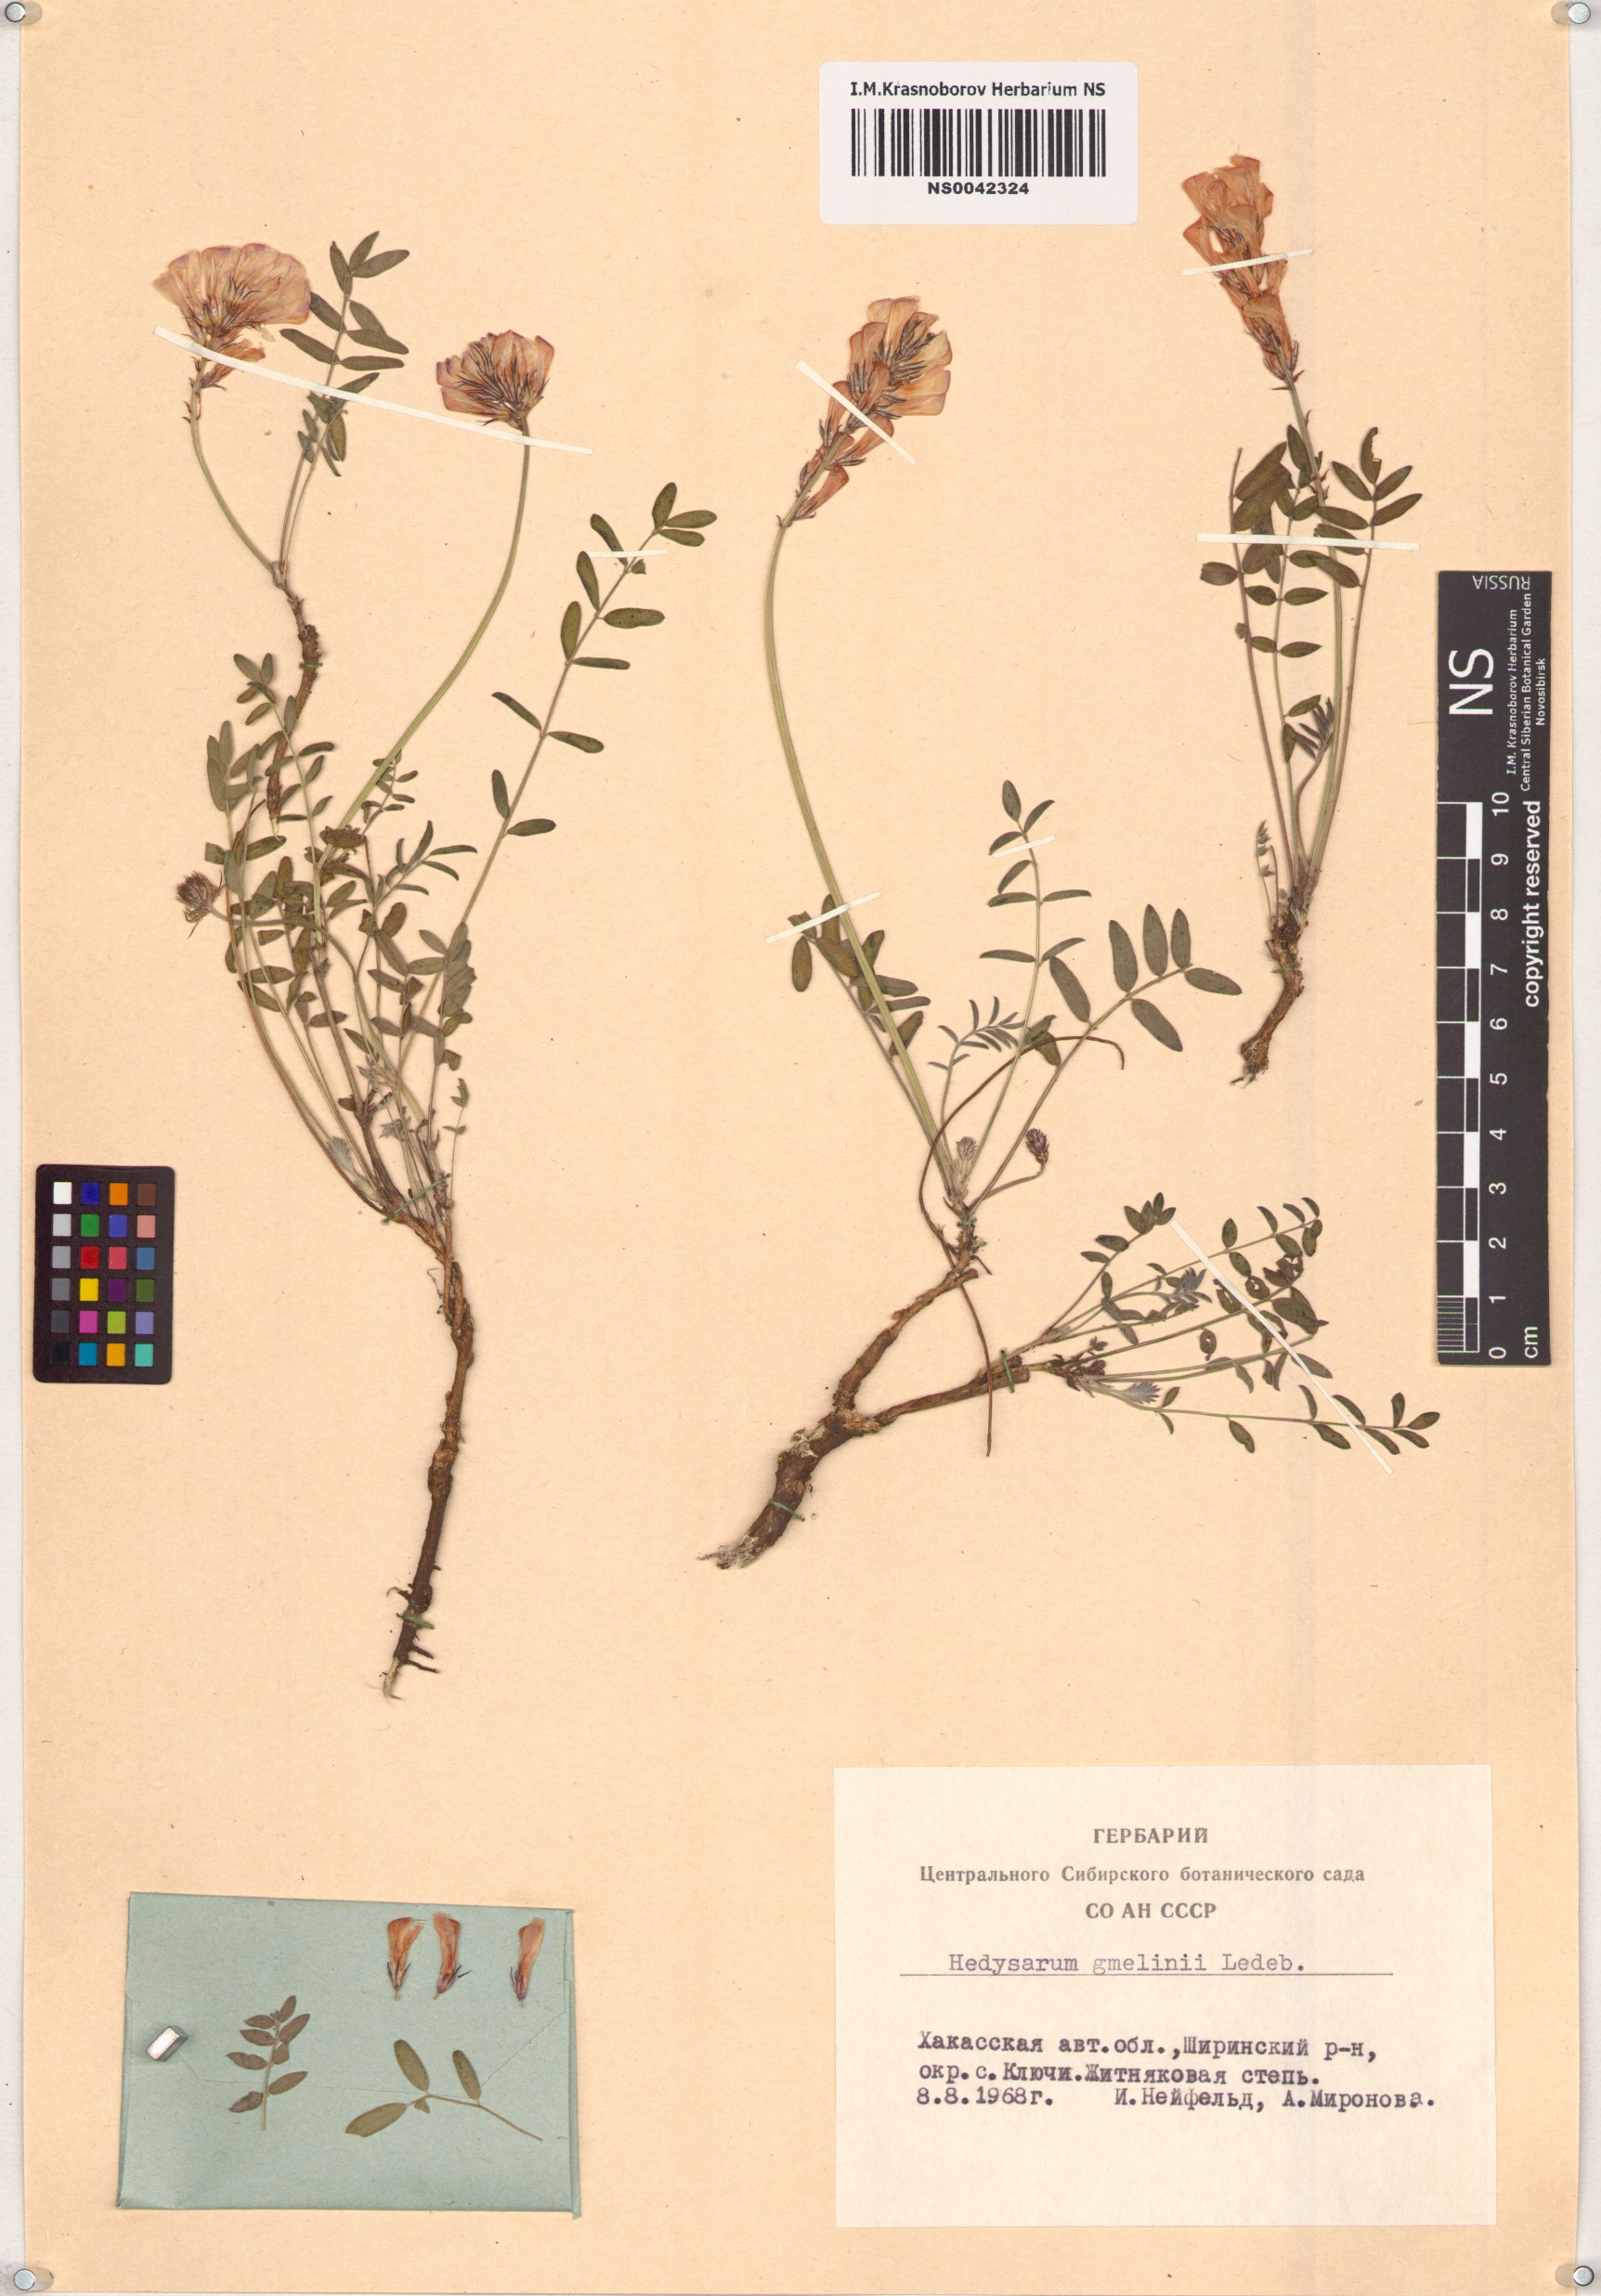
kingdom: Plantae
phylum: Tracheophyta
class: Magnoliopsida
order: Fabales
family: Fabaceae
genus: Hedysarum
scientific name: Hedysarum gmelinii
